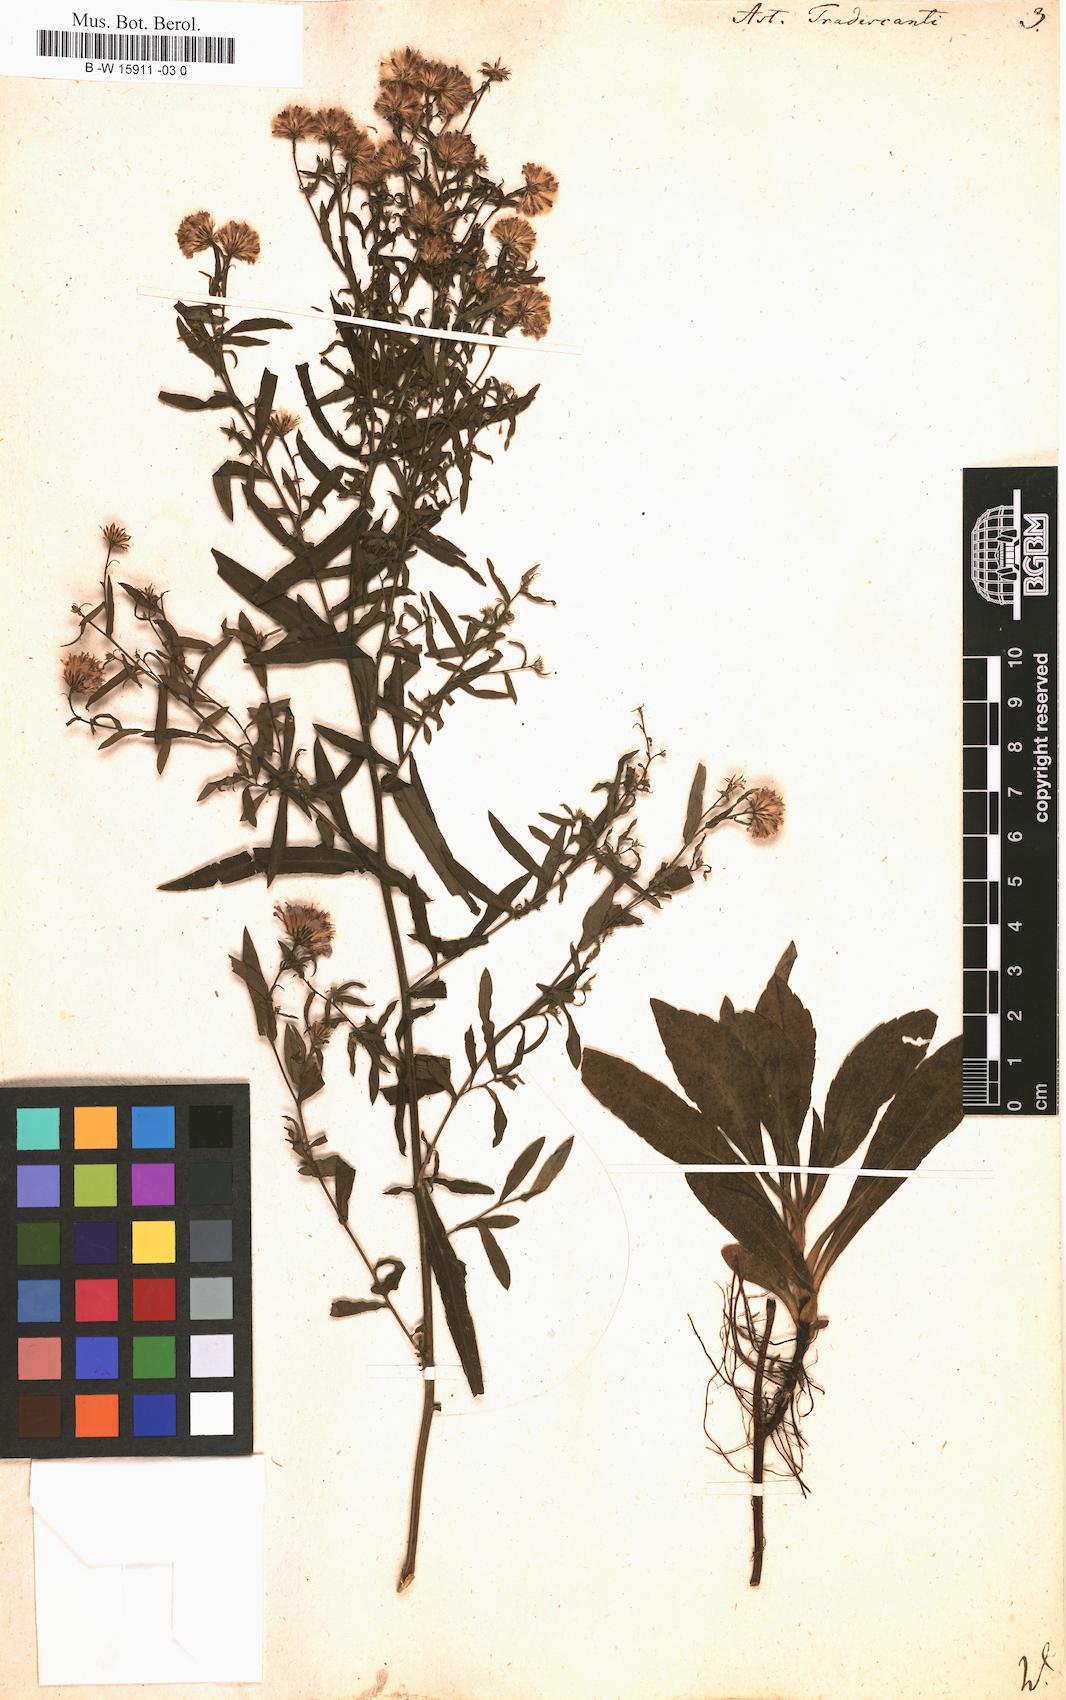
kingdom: Plantae
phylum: Tracheophyta
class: Magnoliopsida
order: Asterales
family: Asteraceae
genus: Aster
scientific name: Aster tradescanti
